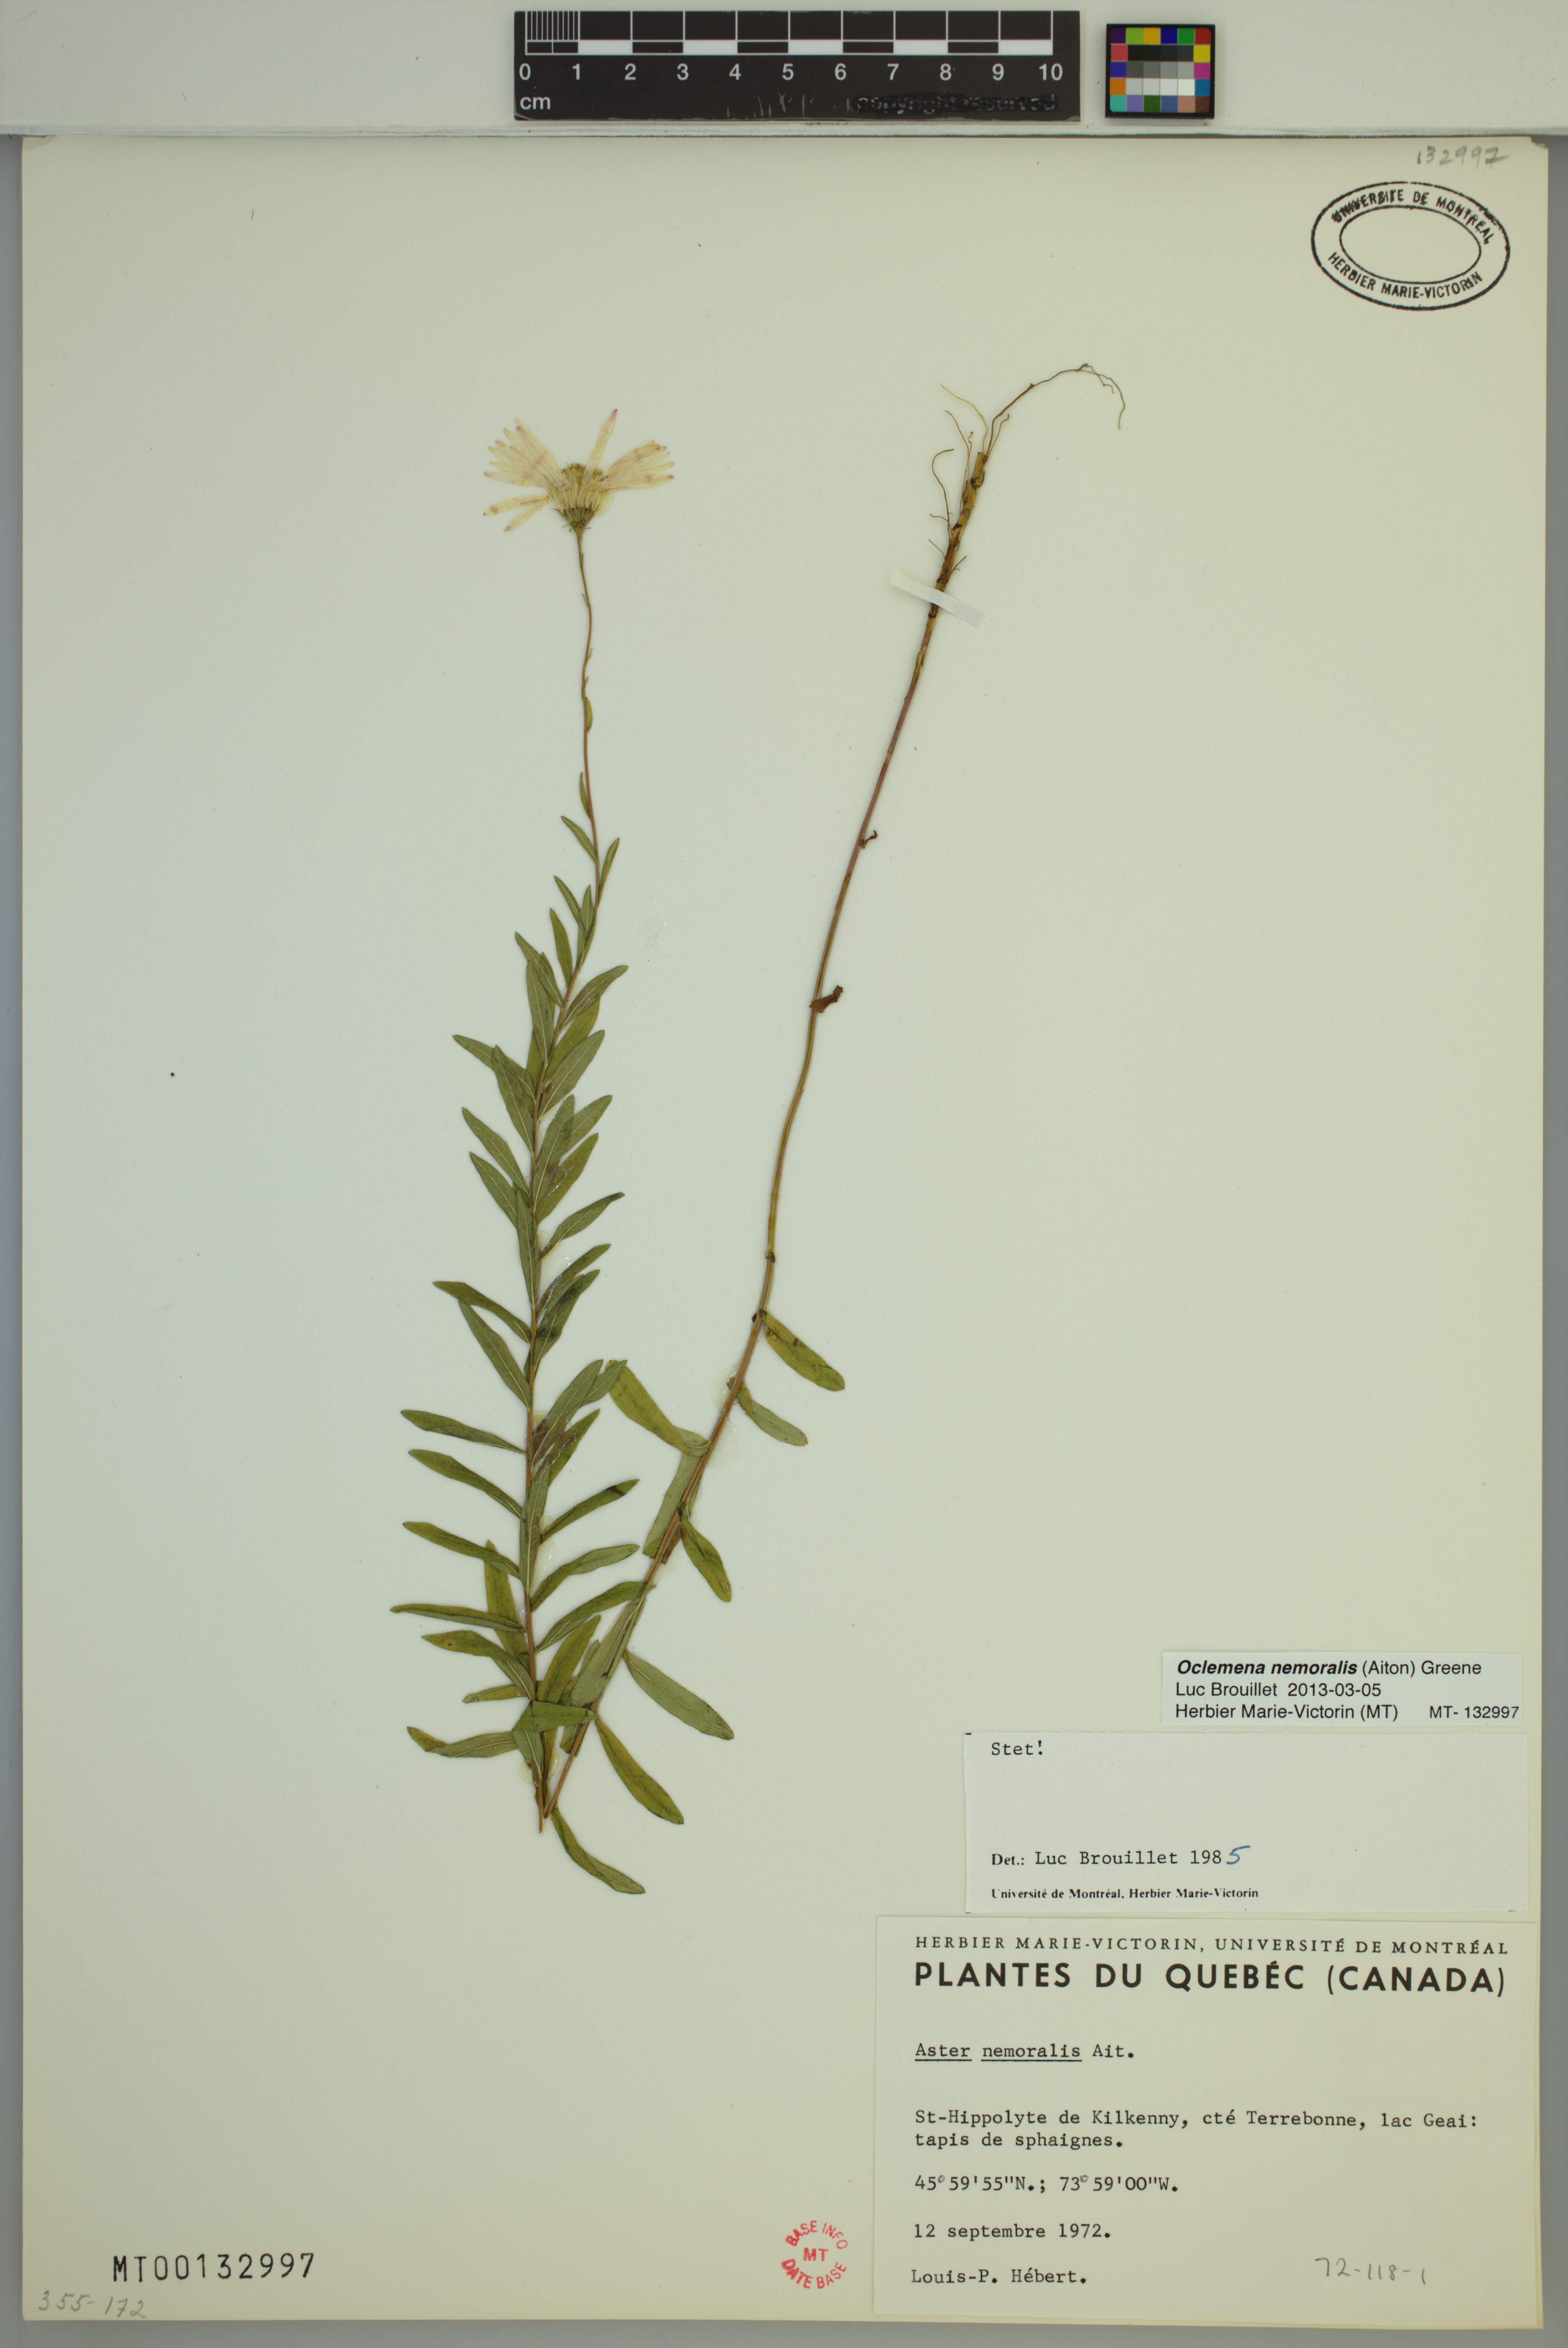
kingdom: Plantae
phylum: Tracheophyta
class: Magnoliopsida
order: Asterales
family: Asteraceae
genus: Oclemena
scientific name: Oclemena nemoralis
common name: Bog aster
